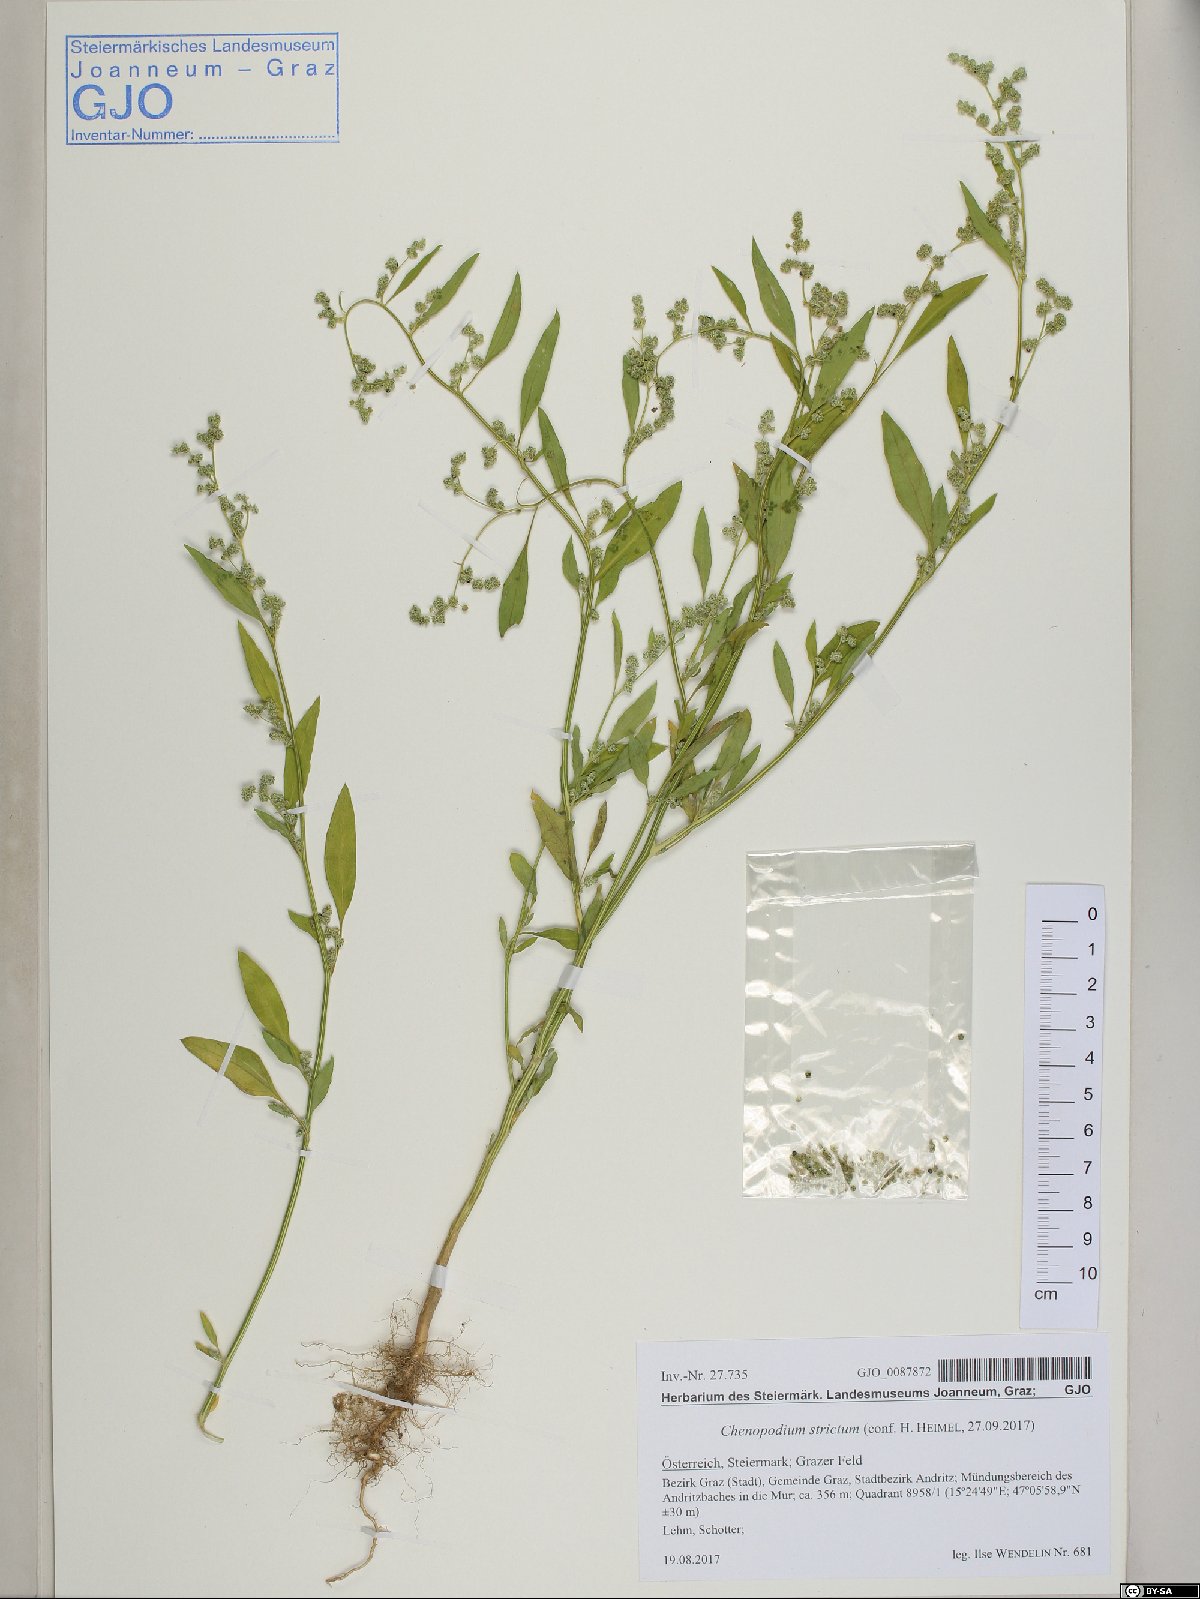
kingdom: Plantae
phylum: Tracheophyta
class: Magnoliopsida
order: Caryophyllales
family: Amaranthaceae
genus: Chenopodium
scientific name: Chenopodium album
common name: Fat-hen
